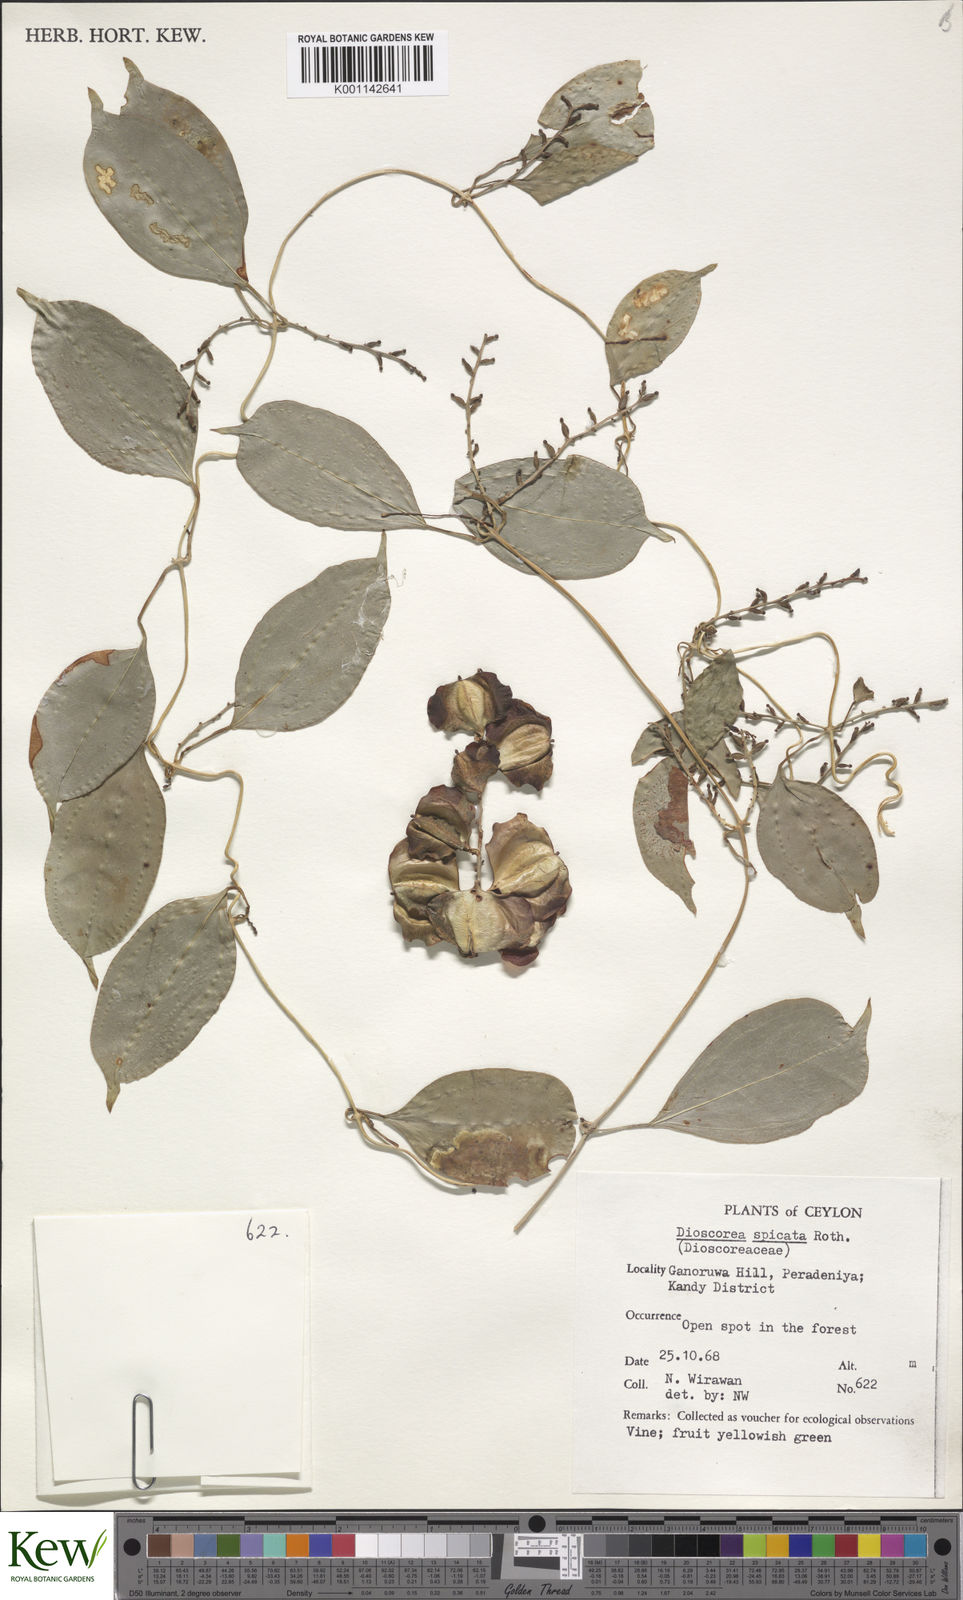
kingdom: Plantae
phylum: Tracheophyta
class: Liliopsida
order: Dioscoreales
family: Dioscoreaceae
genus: Dioscorea
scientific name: Dioscorea spicata
